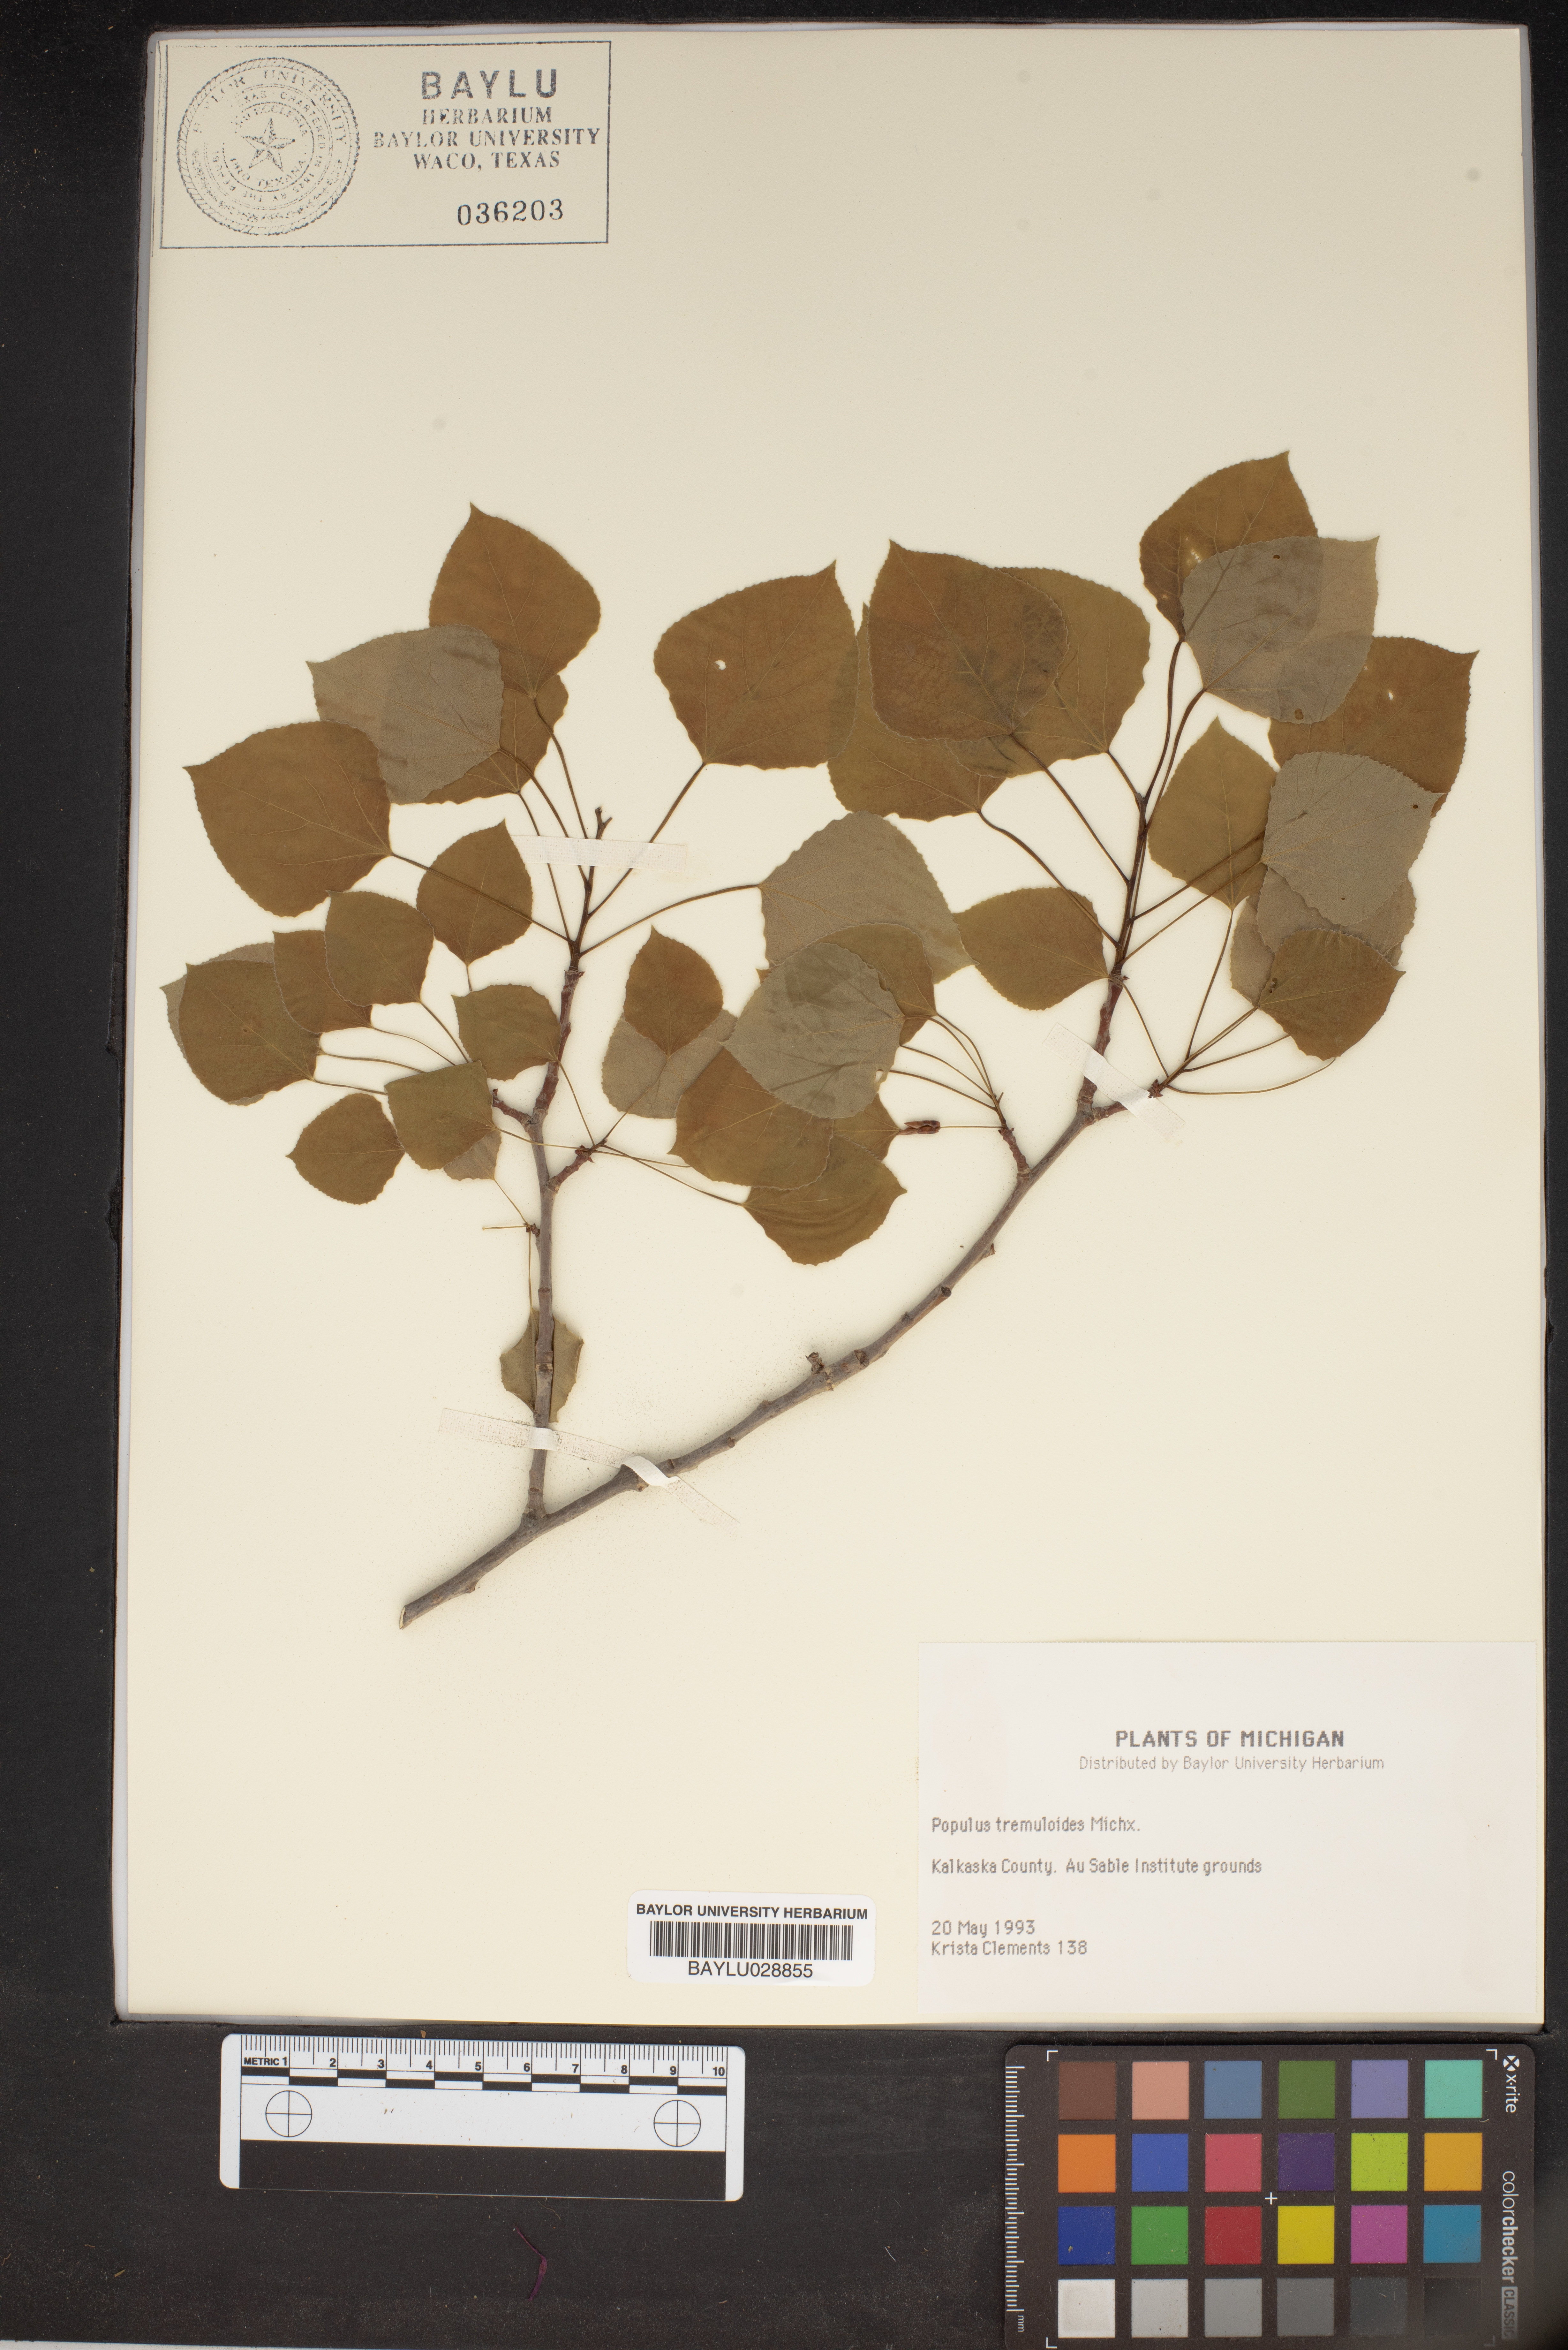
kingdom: Plantae
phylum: Tracheophyta
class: Magnoliopsida
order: Malpighiales
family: Salicaceae
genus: Populus
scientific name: Populus tremuloides
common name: Quaking aspen
